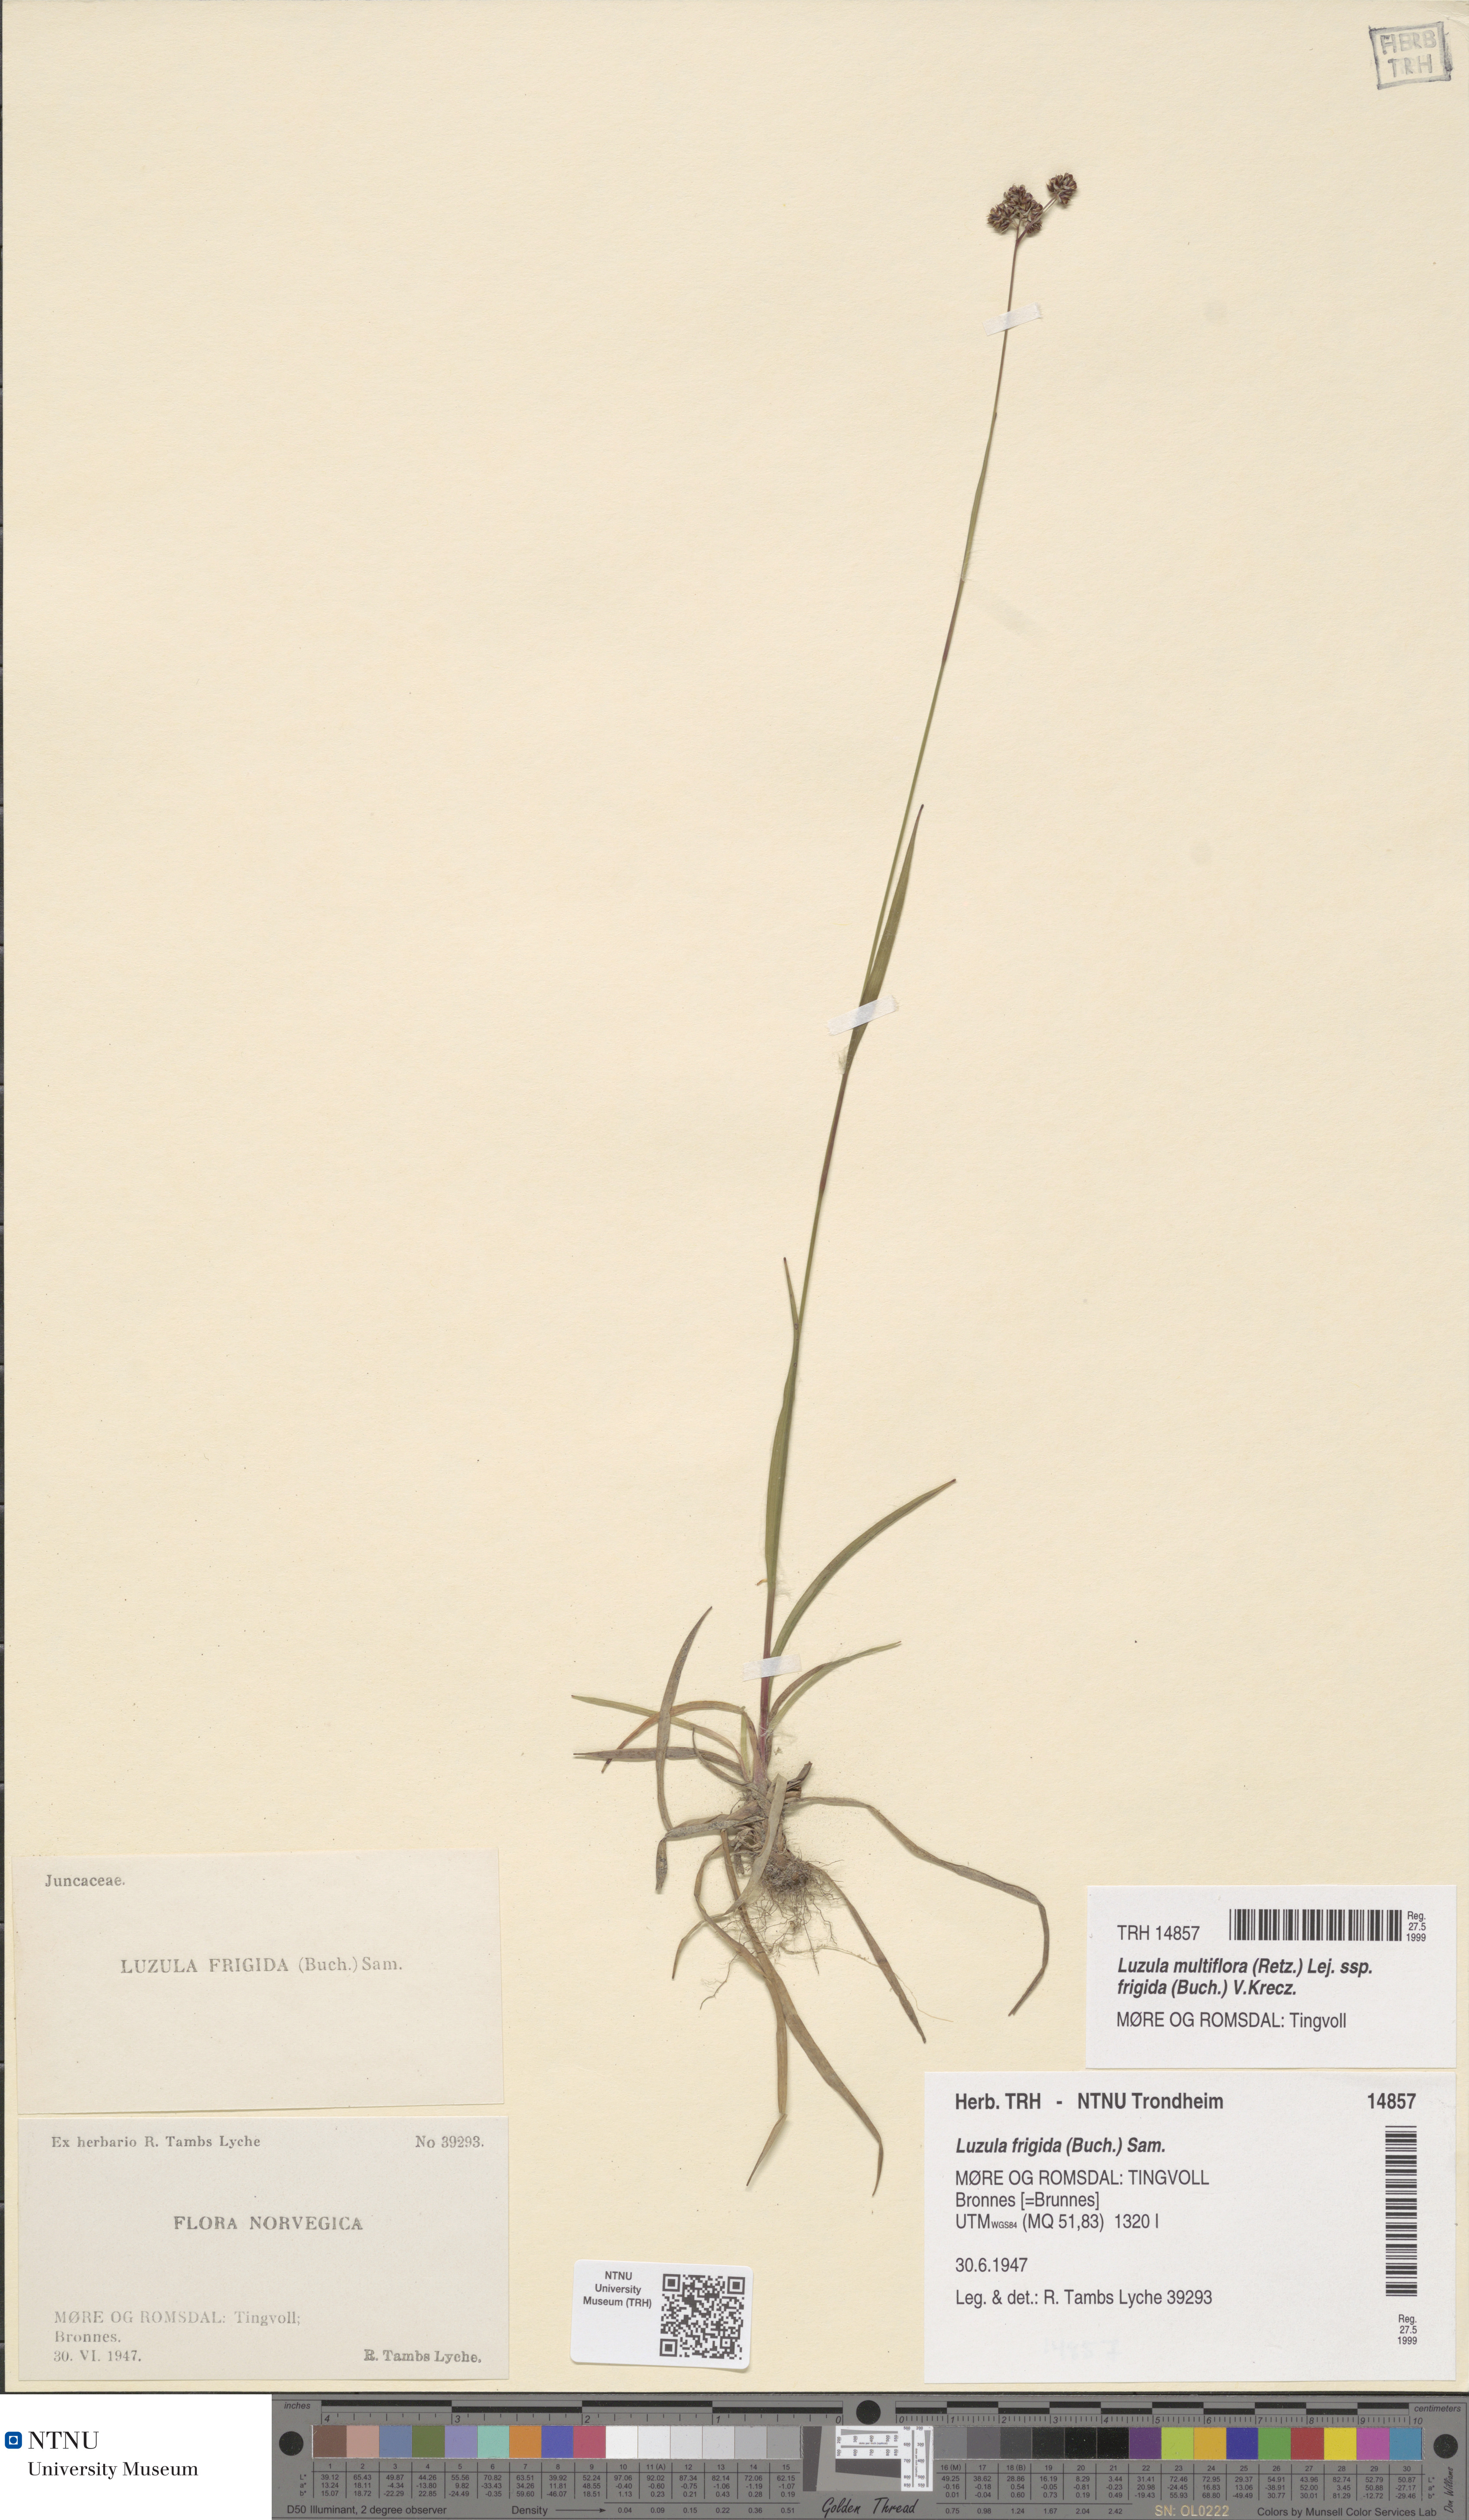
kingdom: Plantae
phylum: Tracheophyta
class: Liliopsida
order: Poales
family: Juncaceae
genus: Luzula
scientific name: Luzula multiflora
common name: Heath wood-rush
